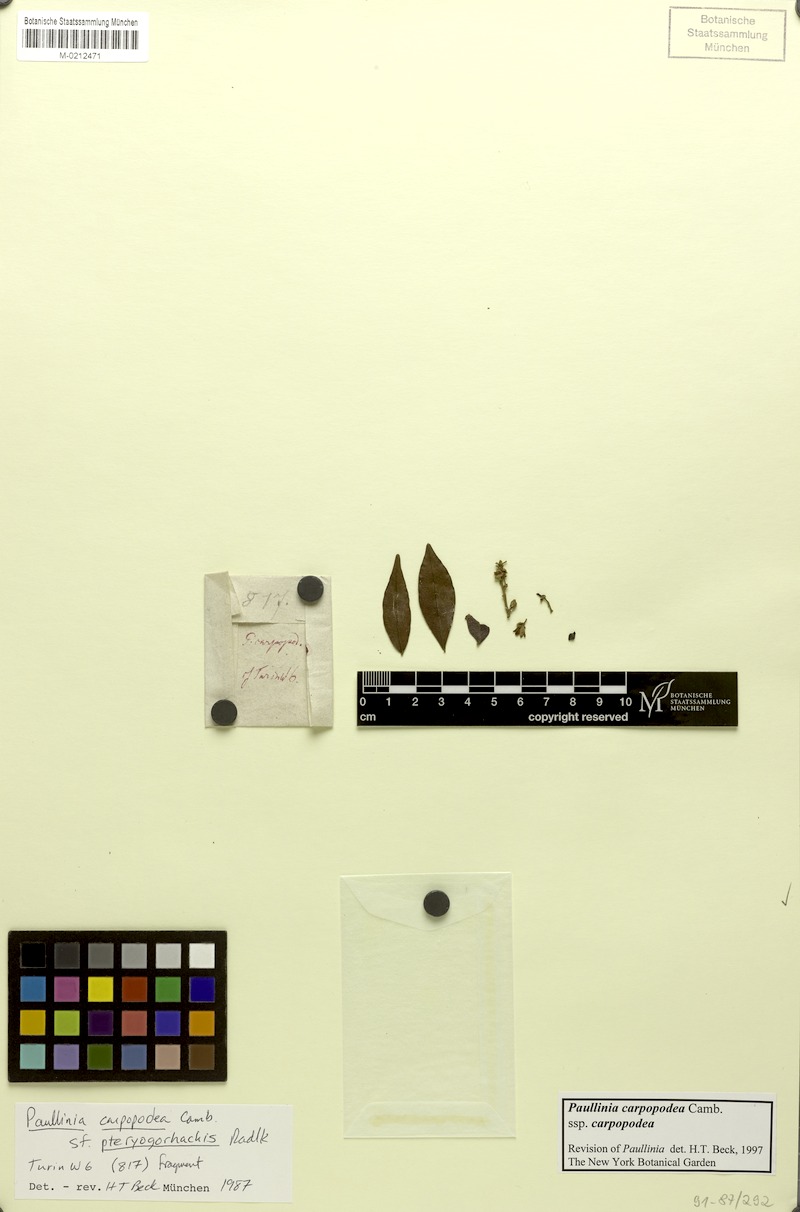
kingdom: Plantae
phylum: Tracheophyta
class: Magnoliopsida
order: Sapindales
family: Sapindaceae
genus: Paullinia
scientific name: Paullinia carpopoda
